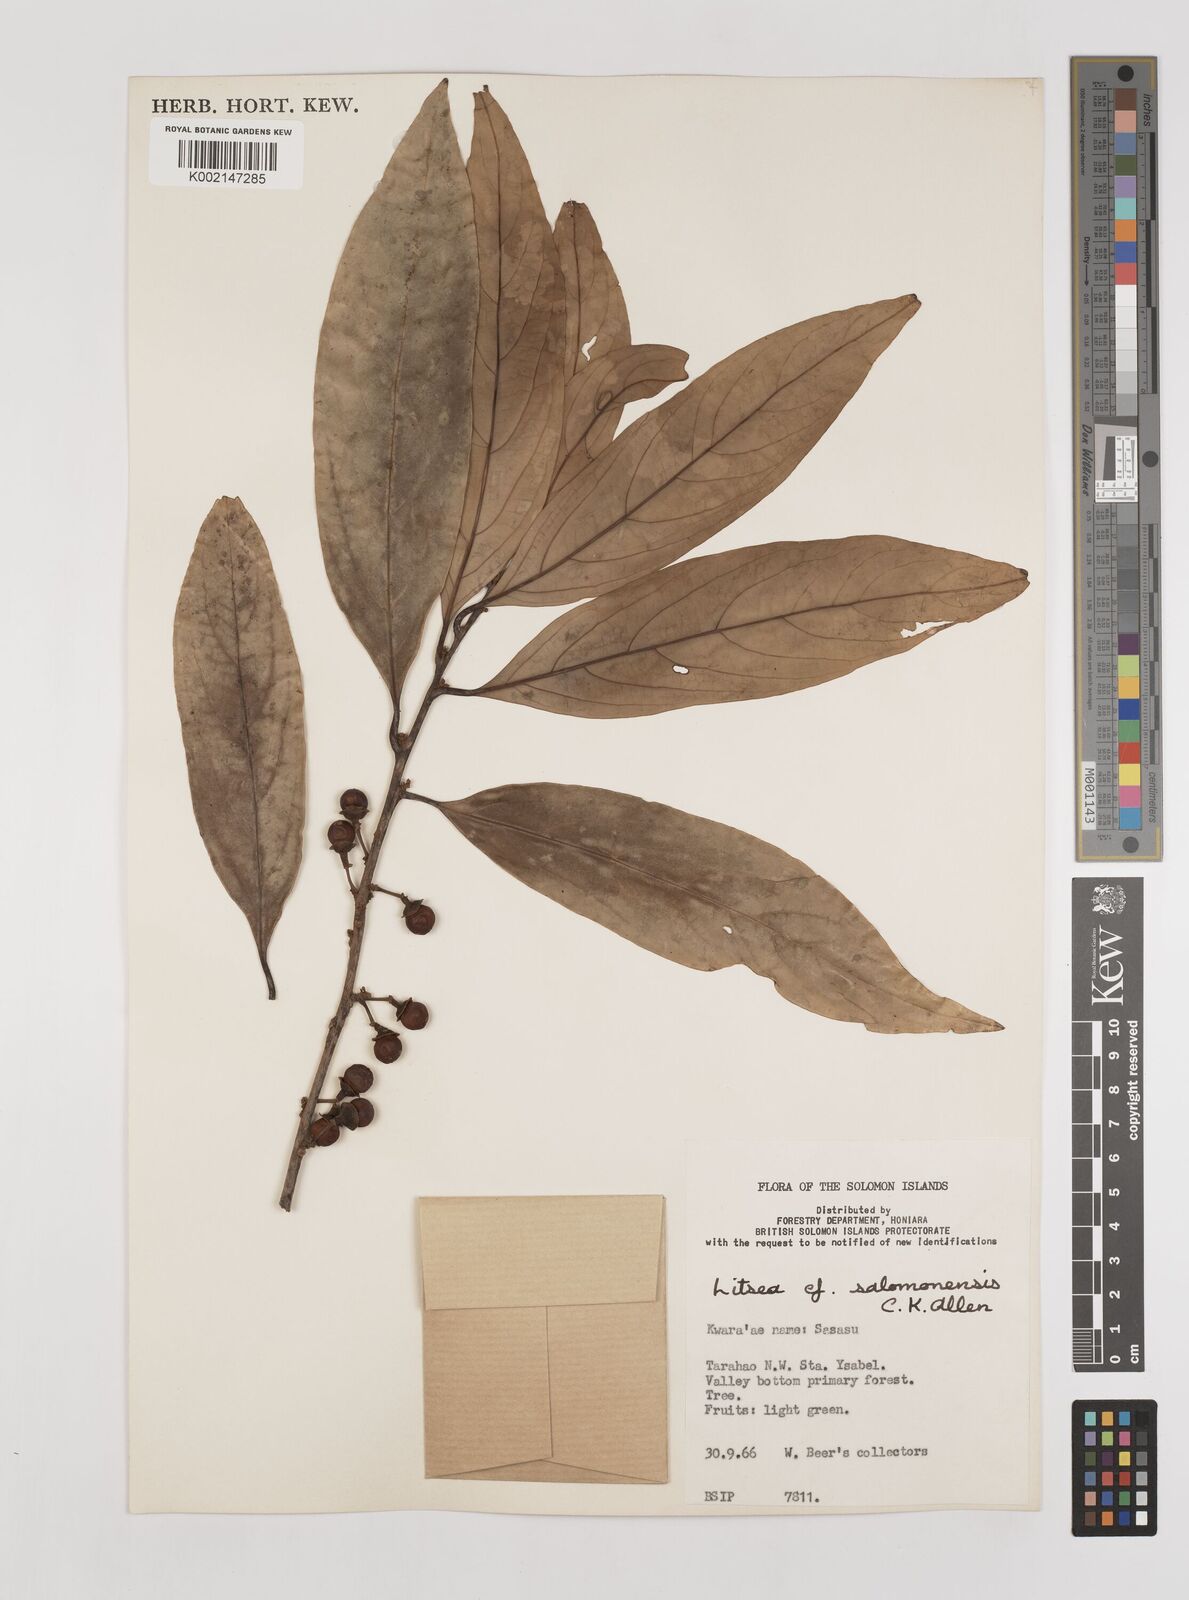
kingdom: Plantae
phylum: Tracheophyta
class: Magnoliopsida
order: Laurales
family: Lauraceae
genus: Litsea
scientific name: Litsea timoriana
